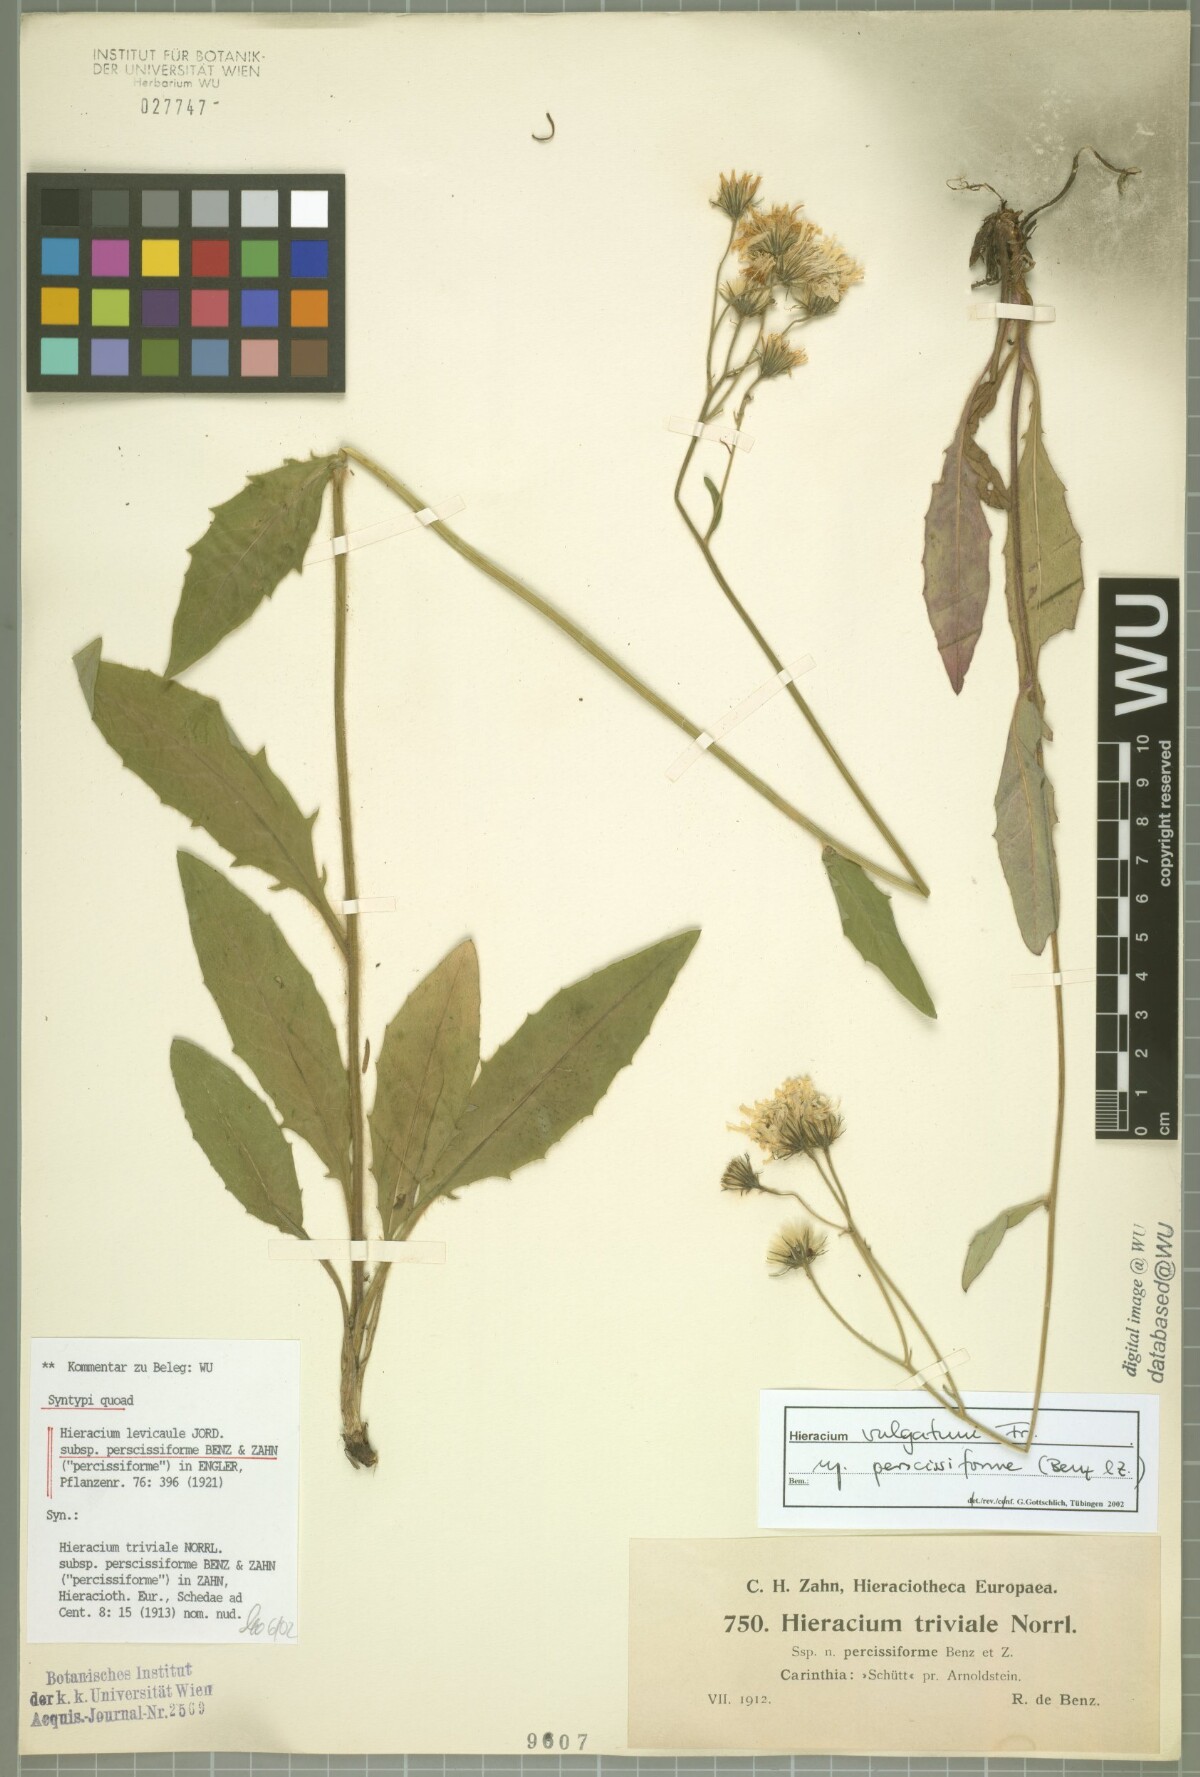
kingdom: Plantae
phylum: Tracheophyta
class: Magnoliopsida
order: Asterales
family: Asteraceae
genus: Hieracium
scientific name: Hieracium levicaule
